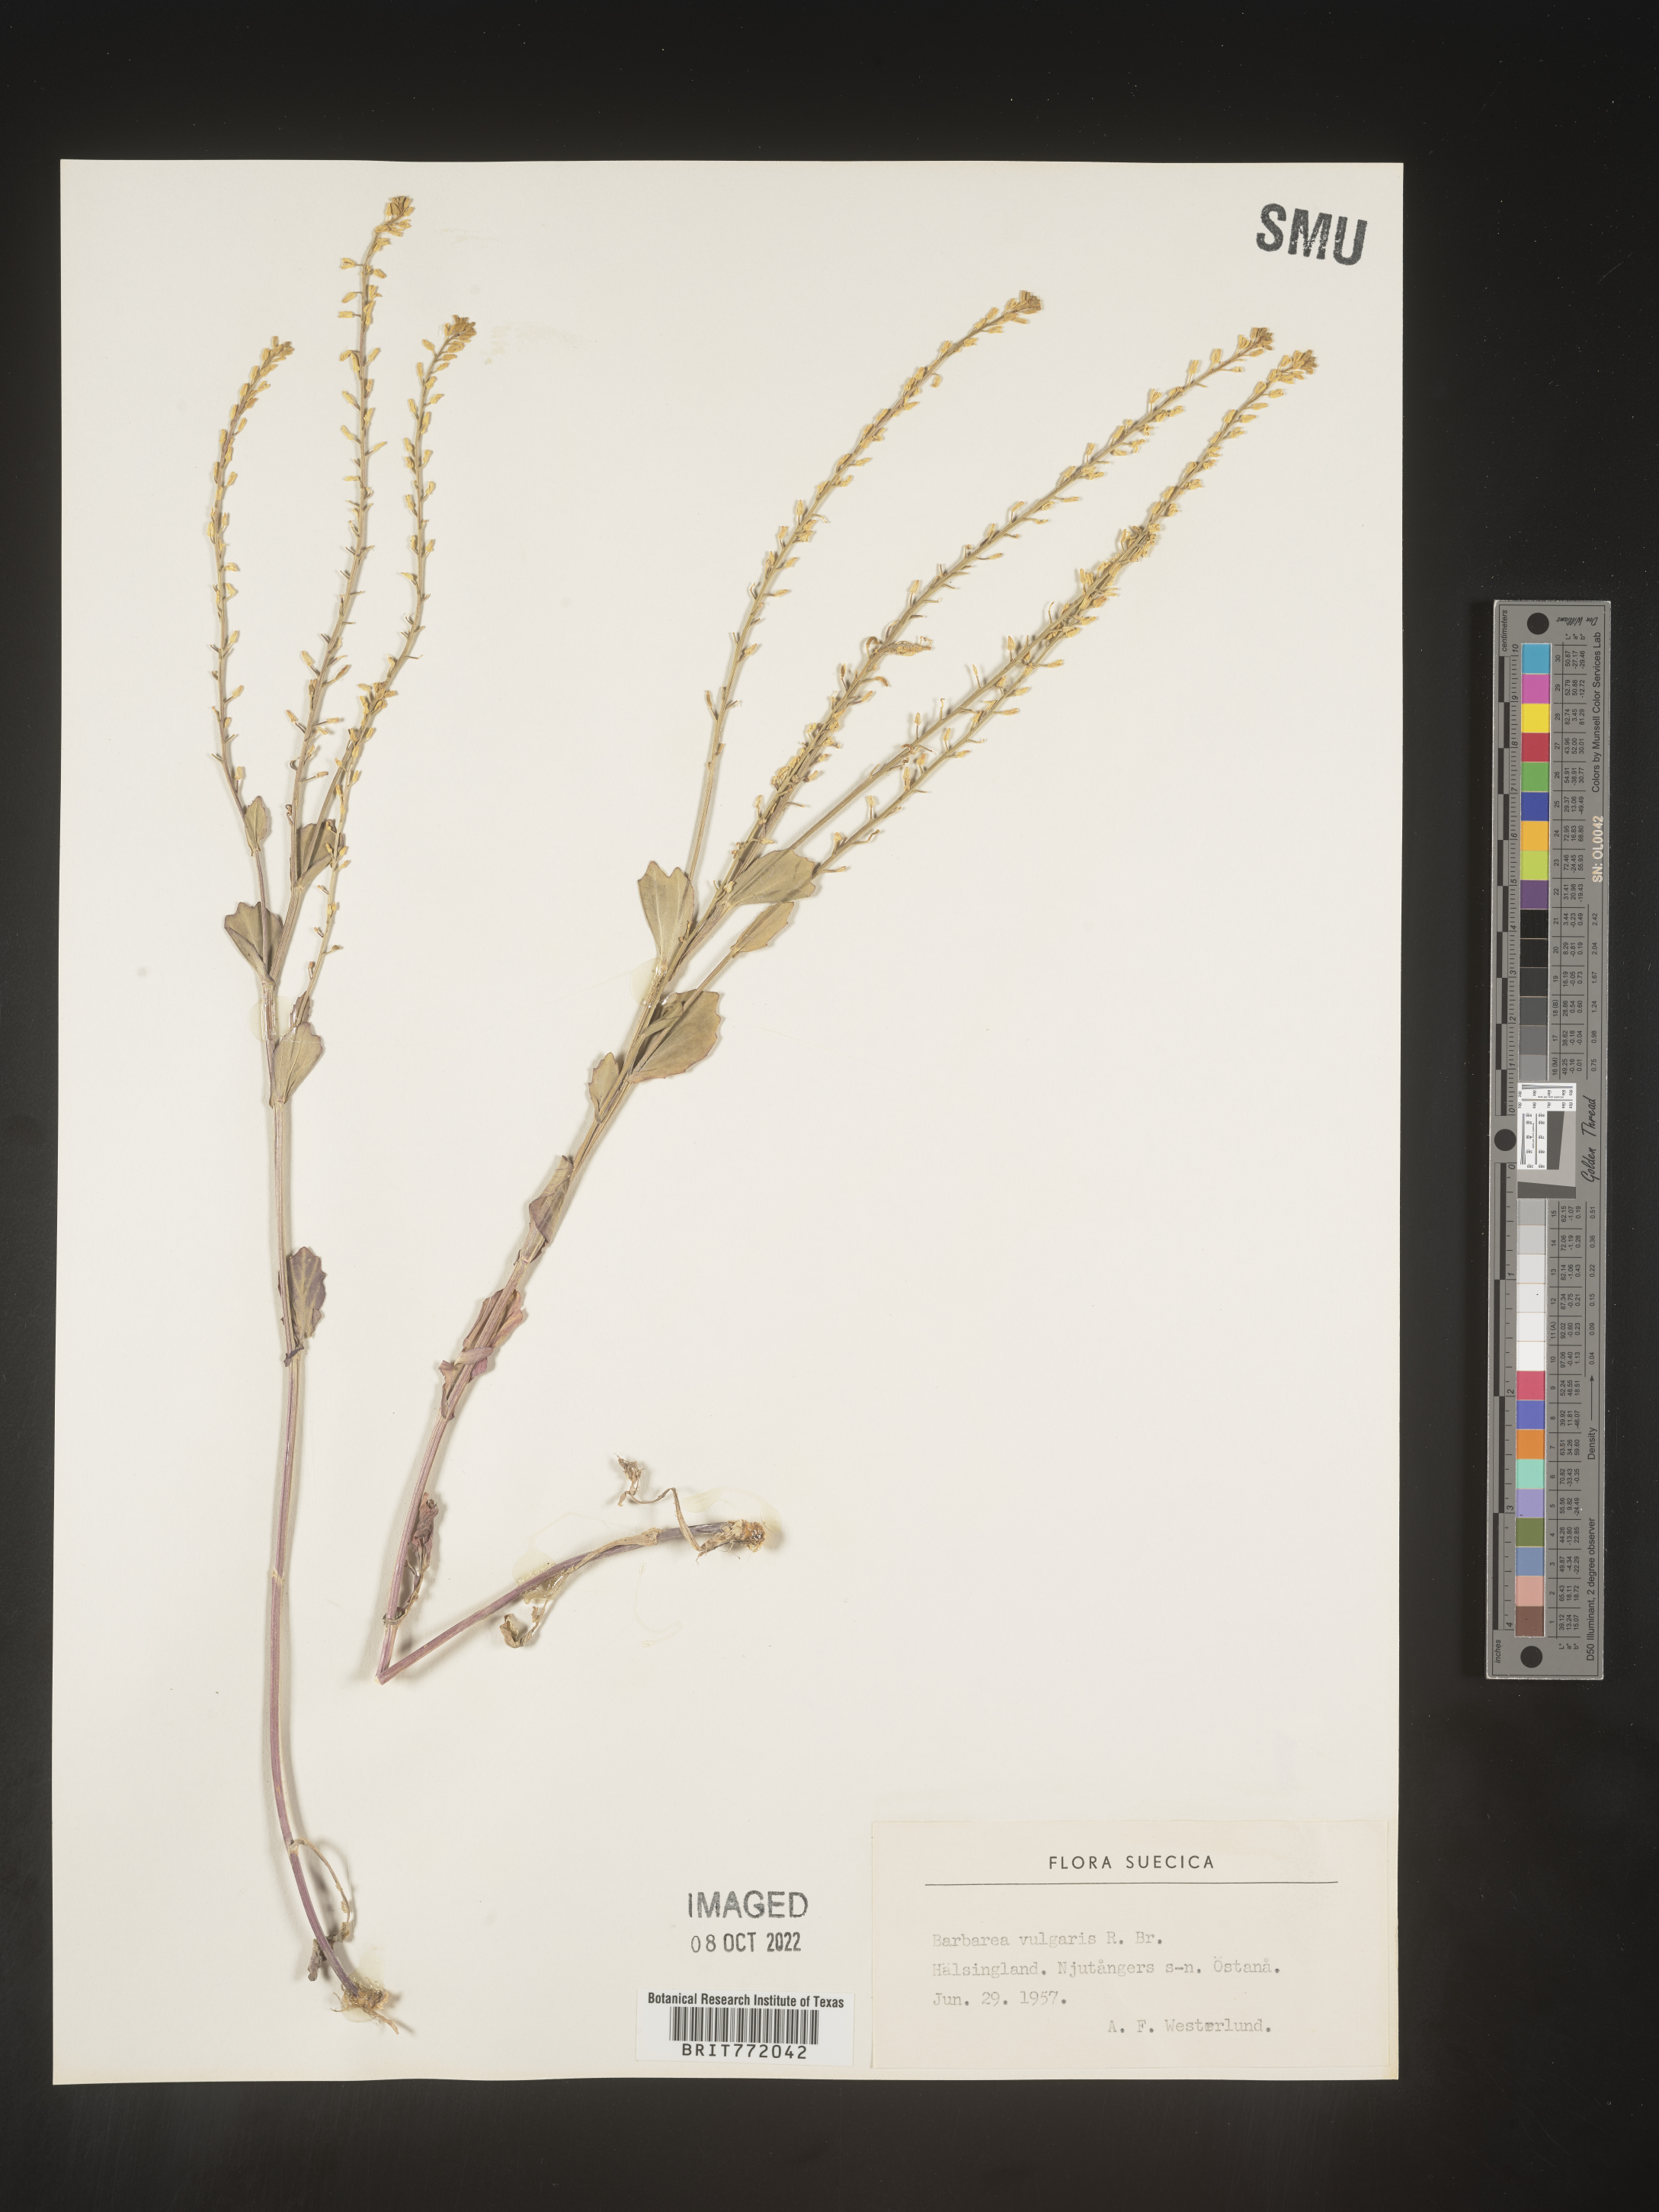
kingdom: Plantae
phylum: Tracheophyta
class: Magnoliopsida
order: Brassicales
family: Brassicaceae
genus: Barbarea
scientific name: Barbarea
